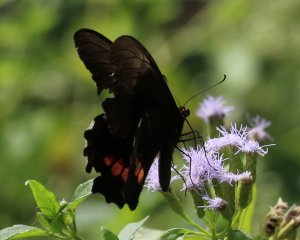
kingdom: Animalia
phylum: Arthropoda
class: Insecta
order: Lepidoptera
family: Papilionidae
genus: Papilio
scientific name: Papilio anchisiades
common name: Ruby-spotted Swallowtail
